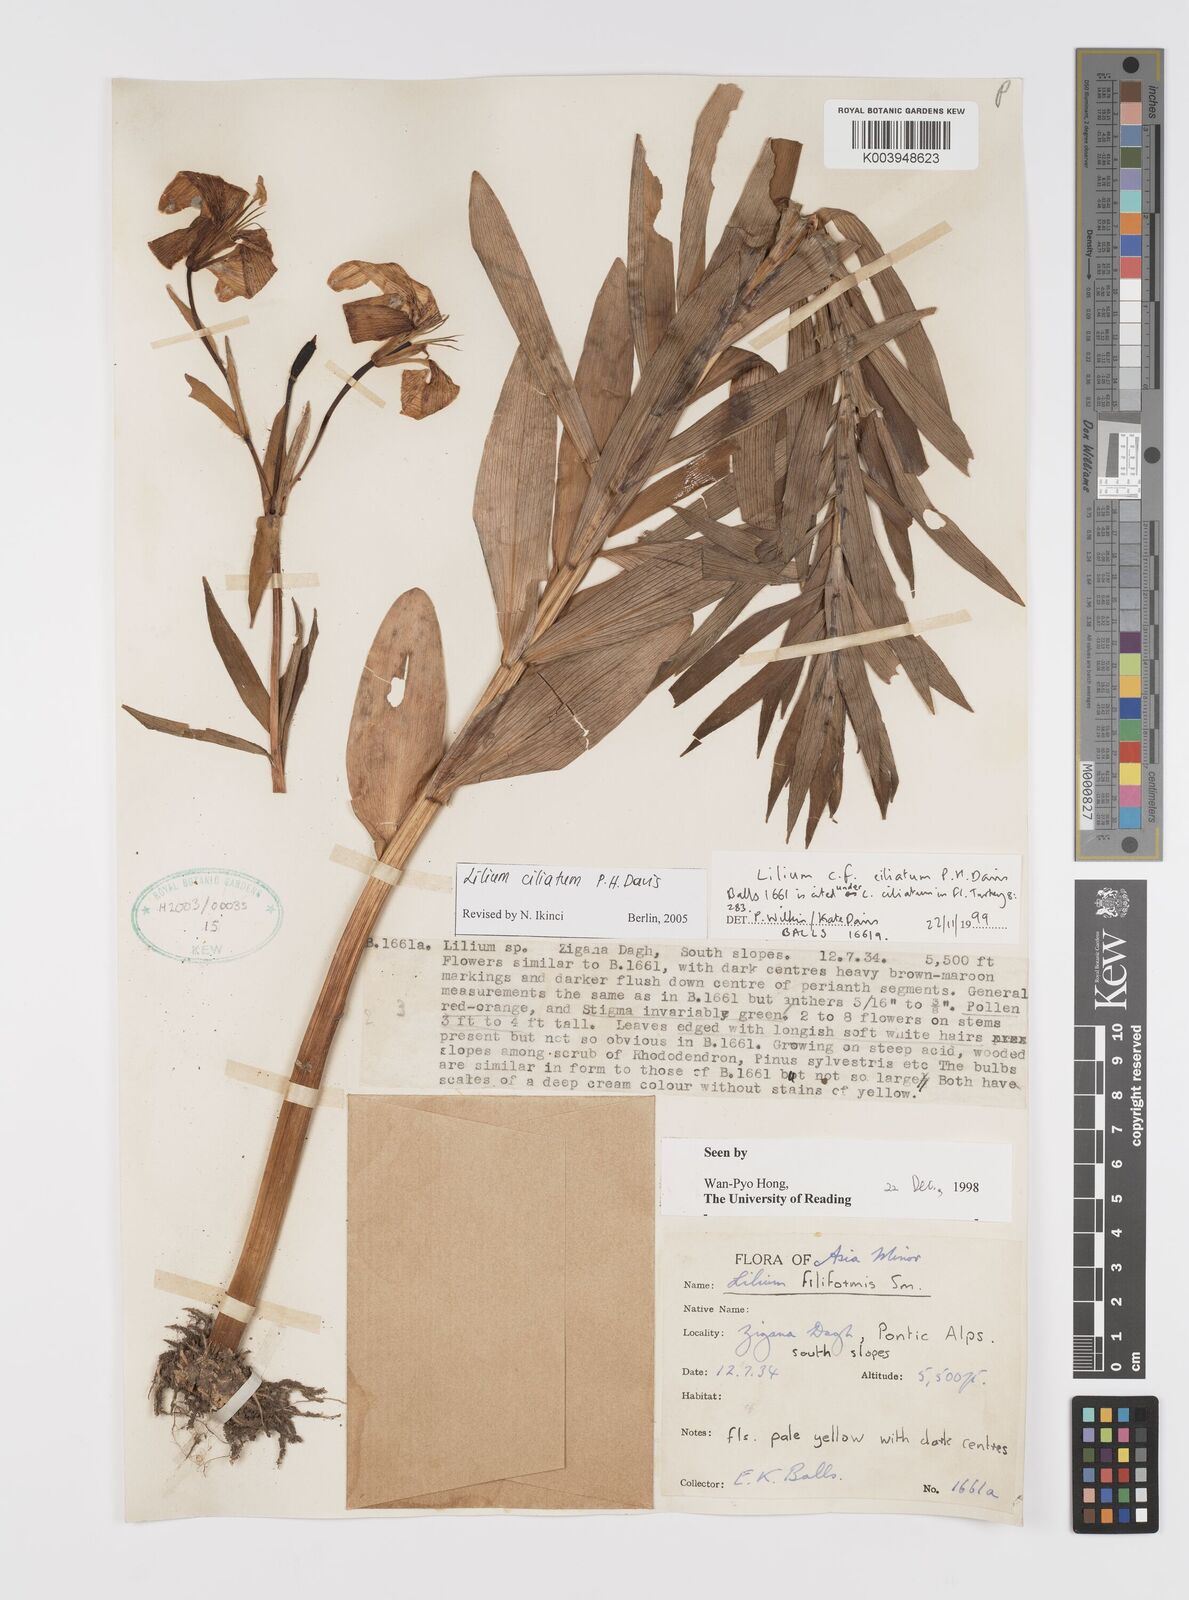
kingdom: Plantae
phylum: Tracheophyta
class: Liliopsida
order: Liliales
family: Liliaceae
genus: Lilium
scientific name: Lilium ciliatum
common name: Ciliate lily
